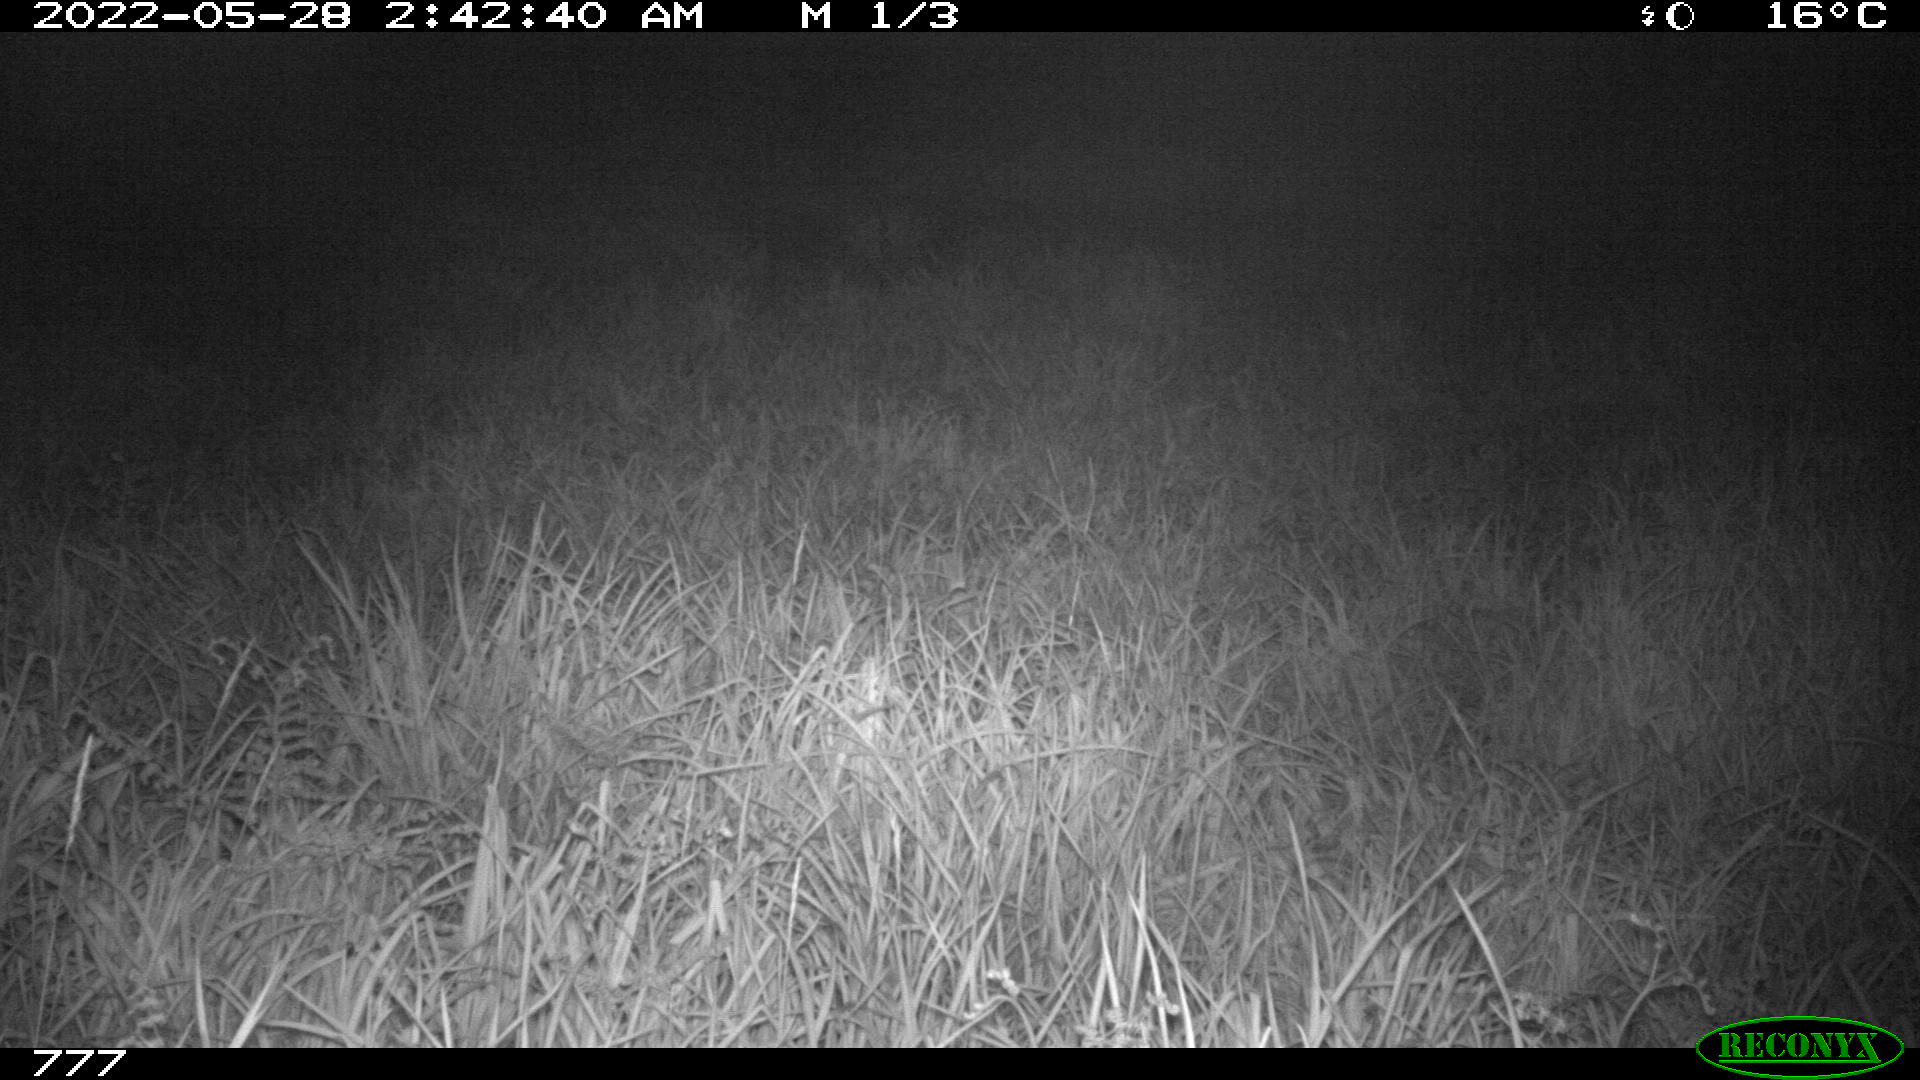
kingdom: Animalia
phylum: Chordata
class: Mammalia
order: Artiodactyla
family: Cervidae
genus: Capreolus
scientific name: Capreolus capreolus
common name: Western roe deer
